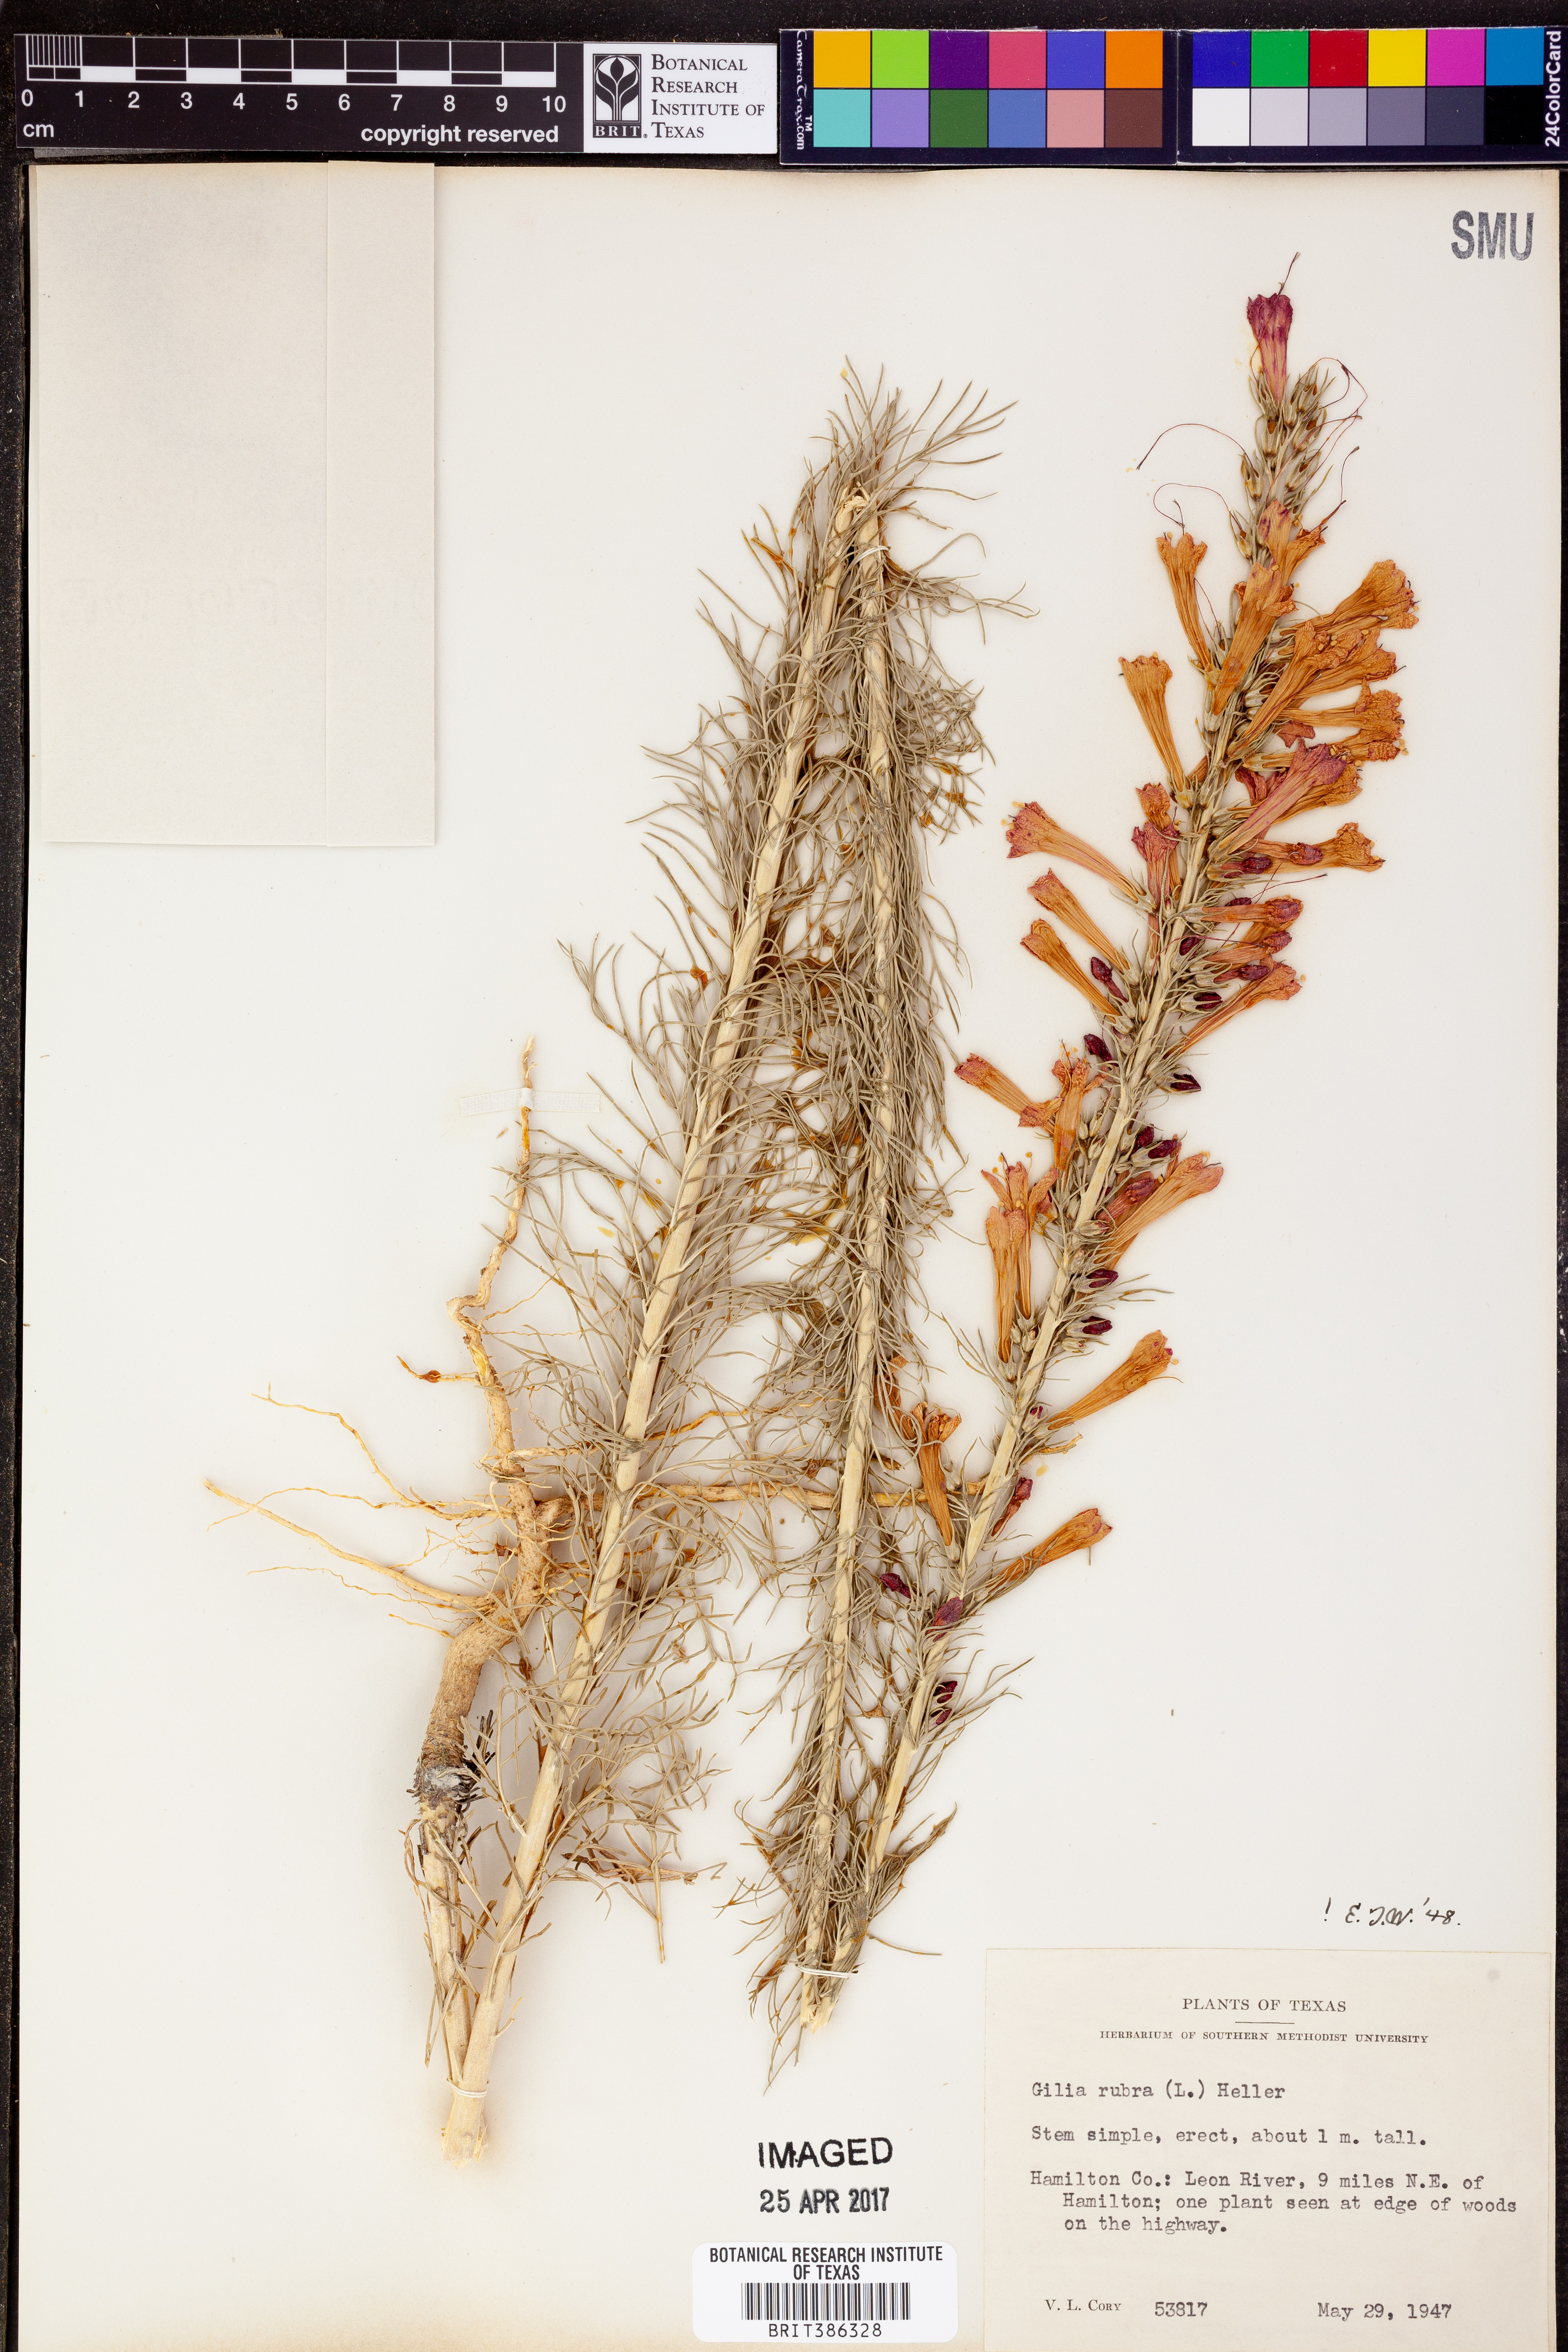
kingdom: Plantae
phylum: Tracheophyta
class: Magnoliopsida
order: Ericales
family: Polemoniaceae
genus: Ipomopsis
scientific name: Ipomopsis rubra
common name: Skyrocket
